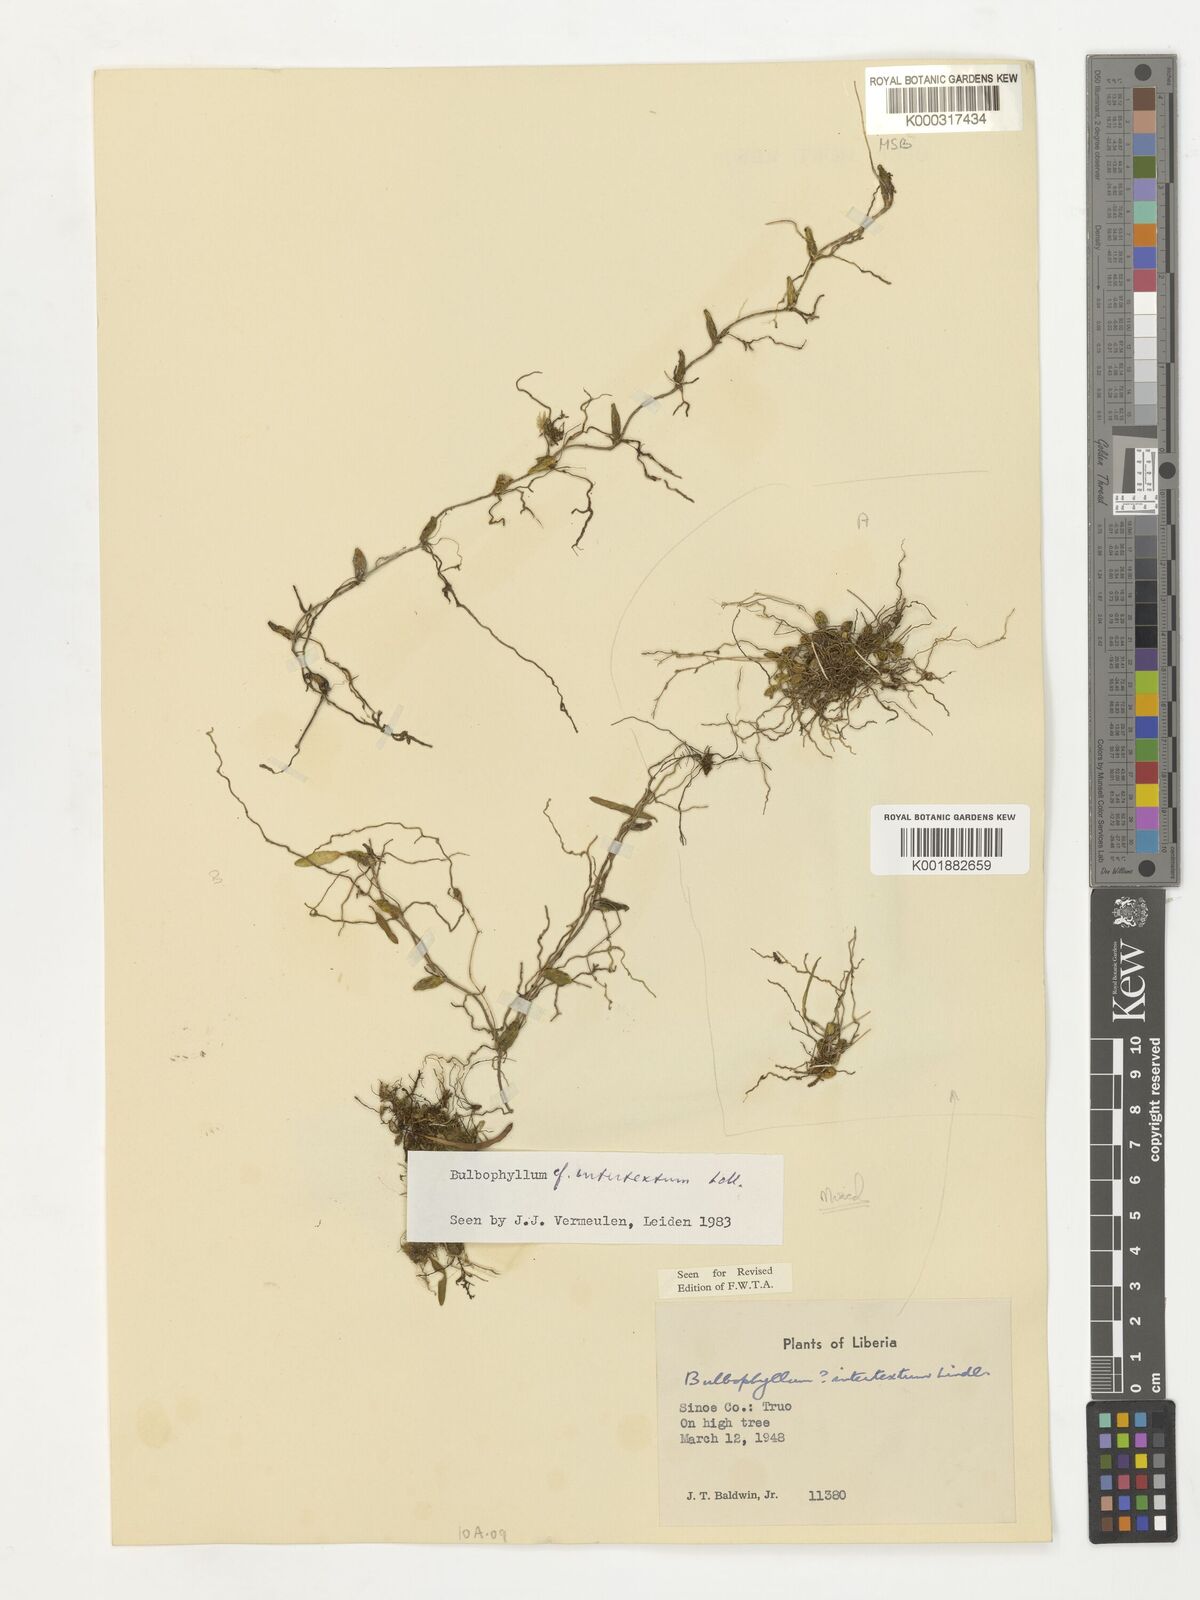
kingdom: Plantae
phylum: Tracheophyta
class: Liliopsida
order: Asparagales
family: Orchidaceae
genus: Bulbophyllum
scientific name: Bulbophyllum intertextum
